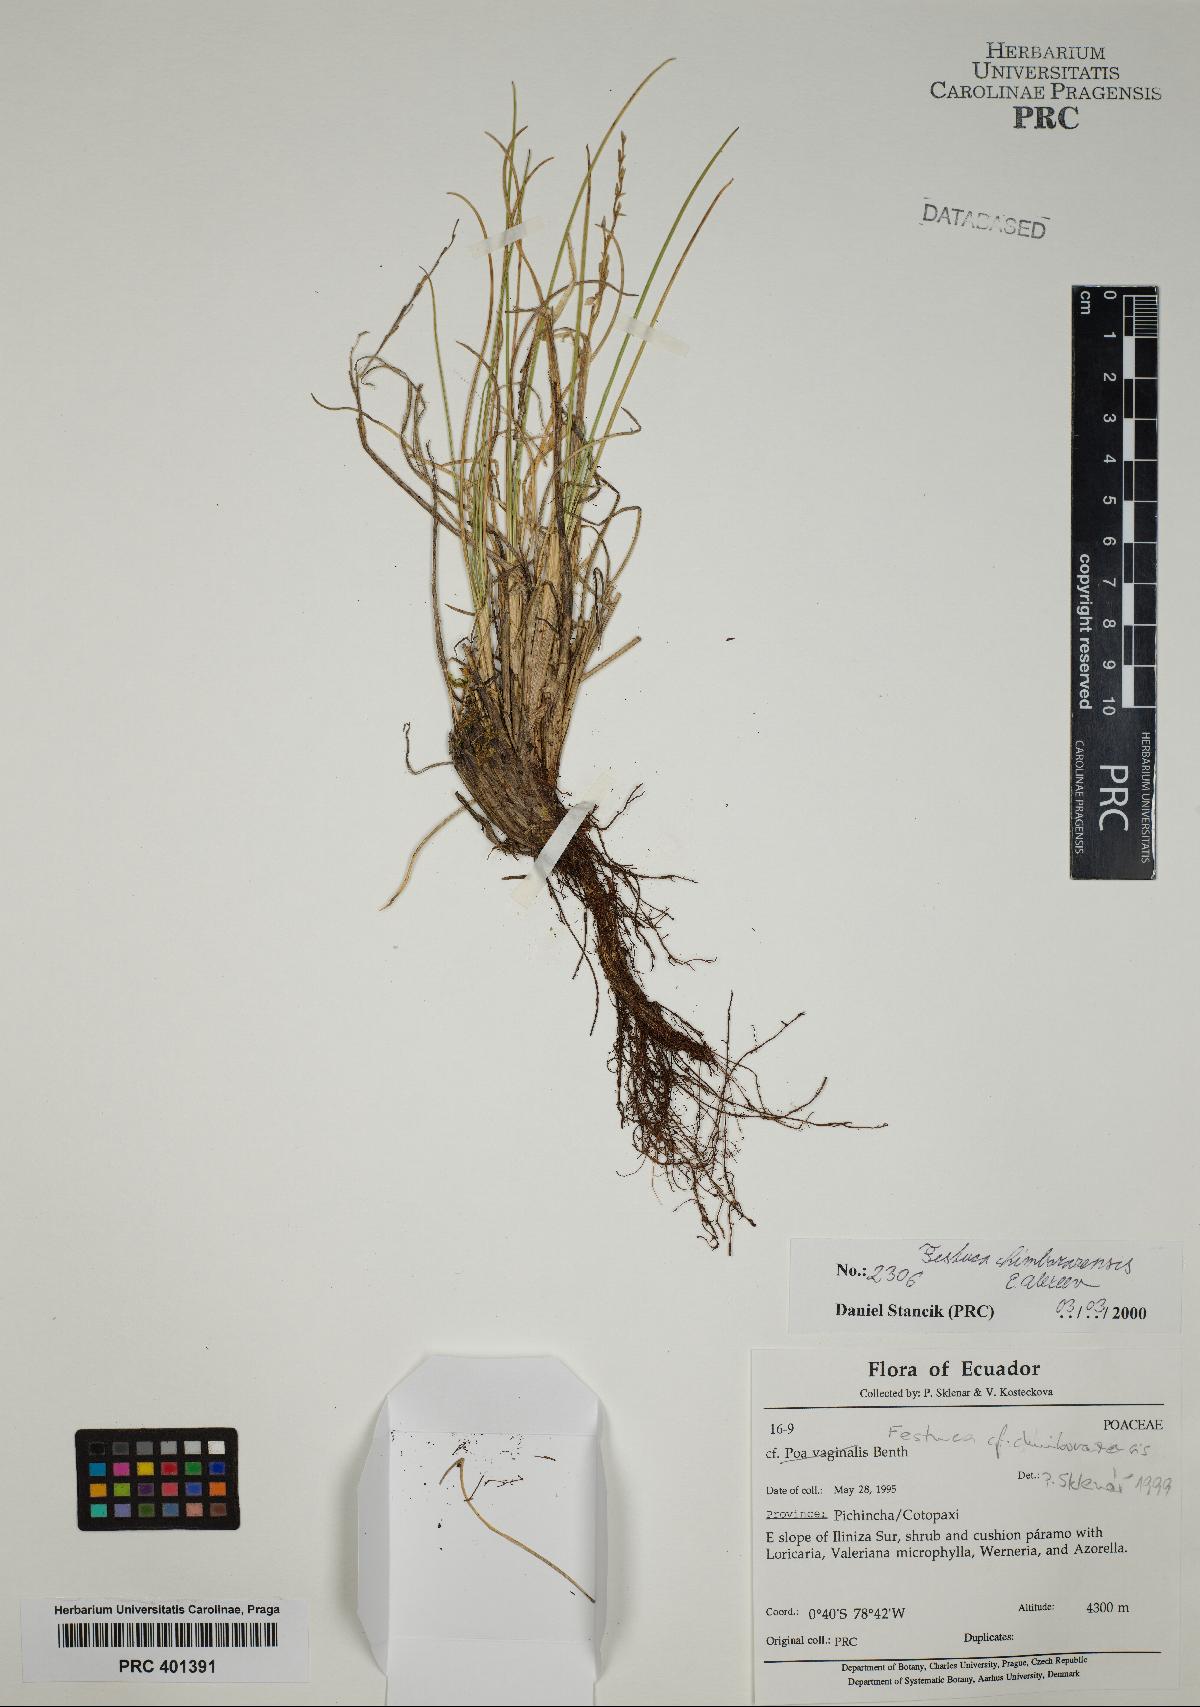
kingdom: Plantae
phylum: Tracheophyta
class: Liliopsida
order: Poales
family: Poaceae
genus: Festuca
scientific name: Festuca chimborazensis
